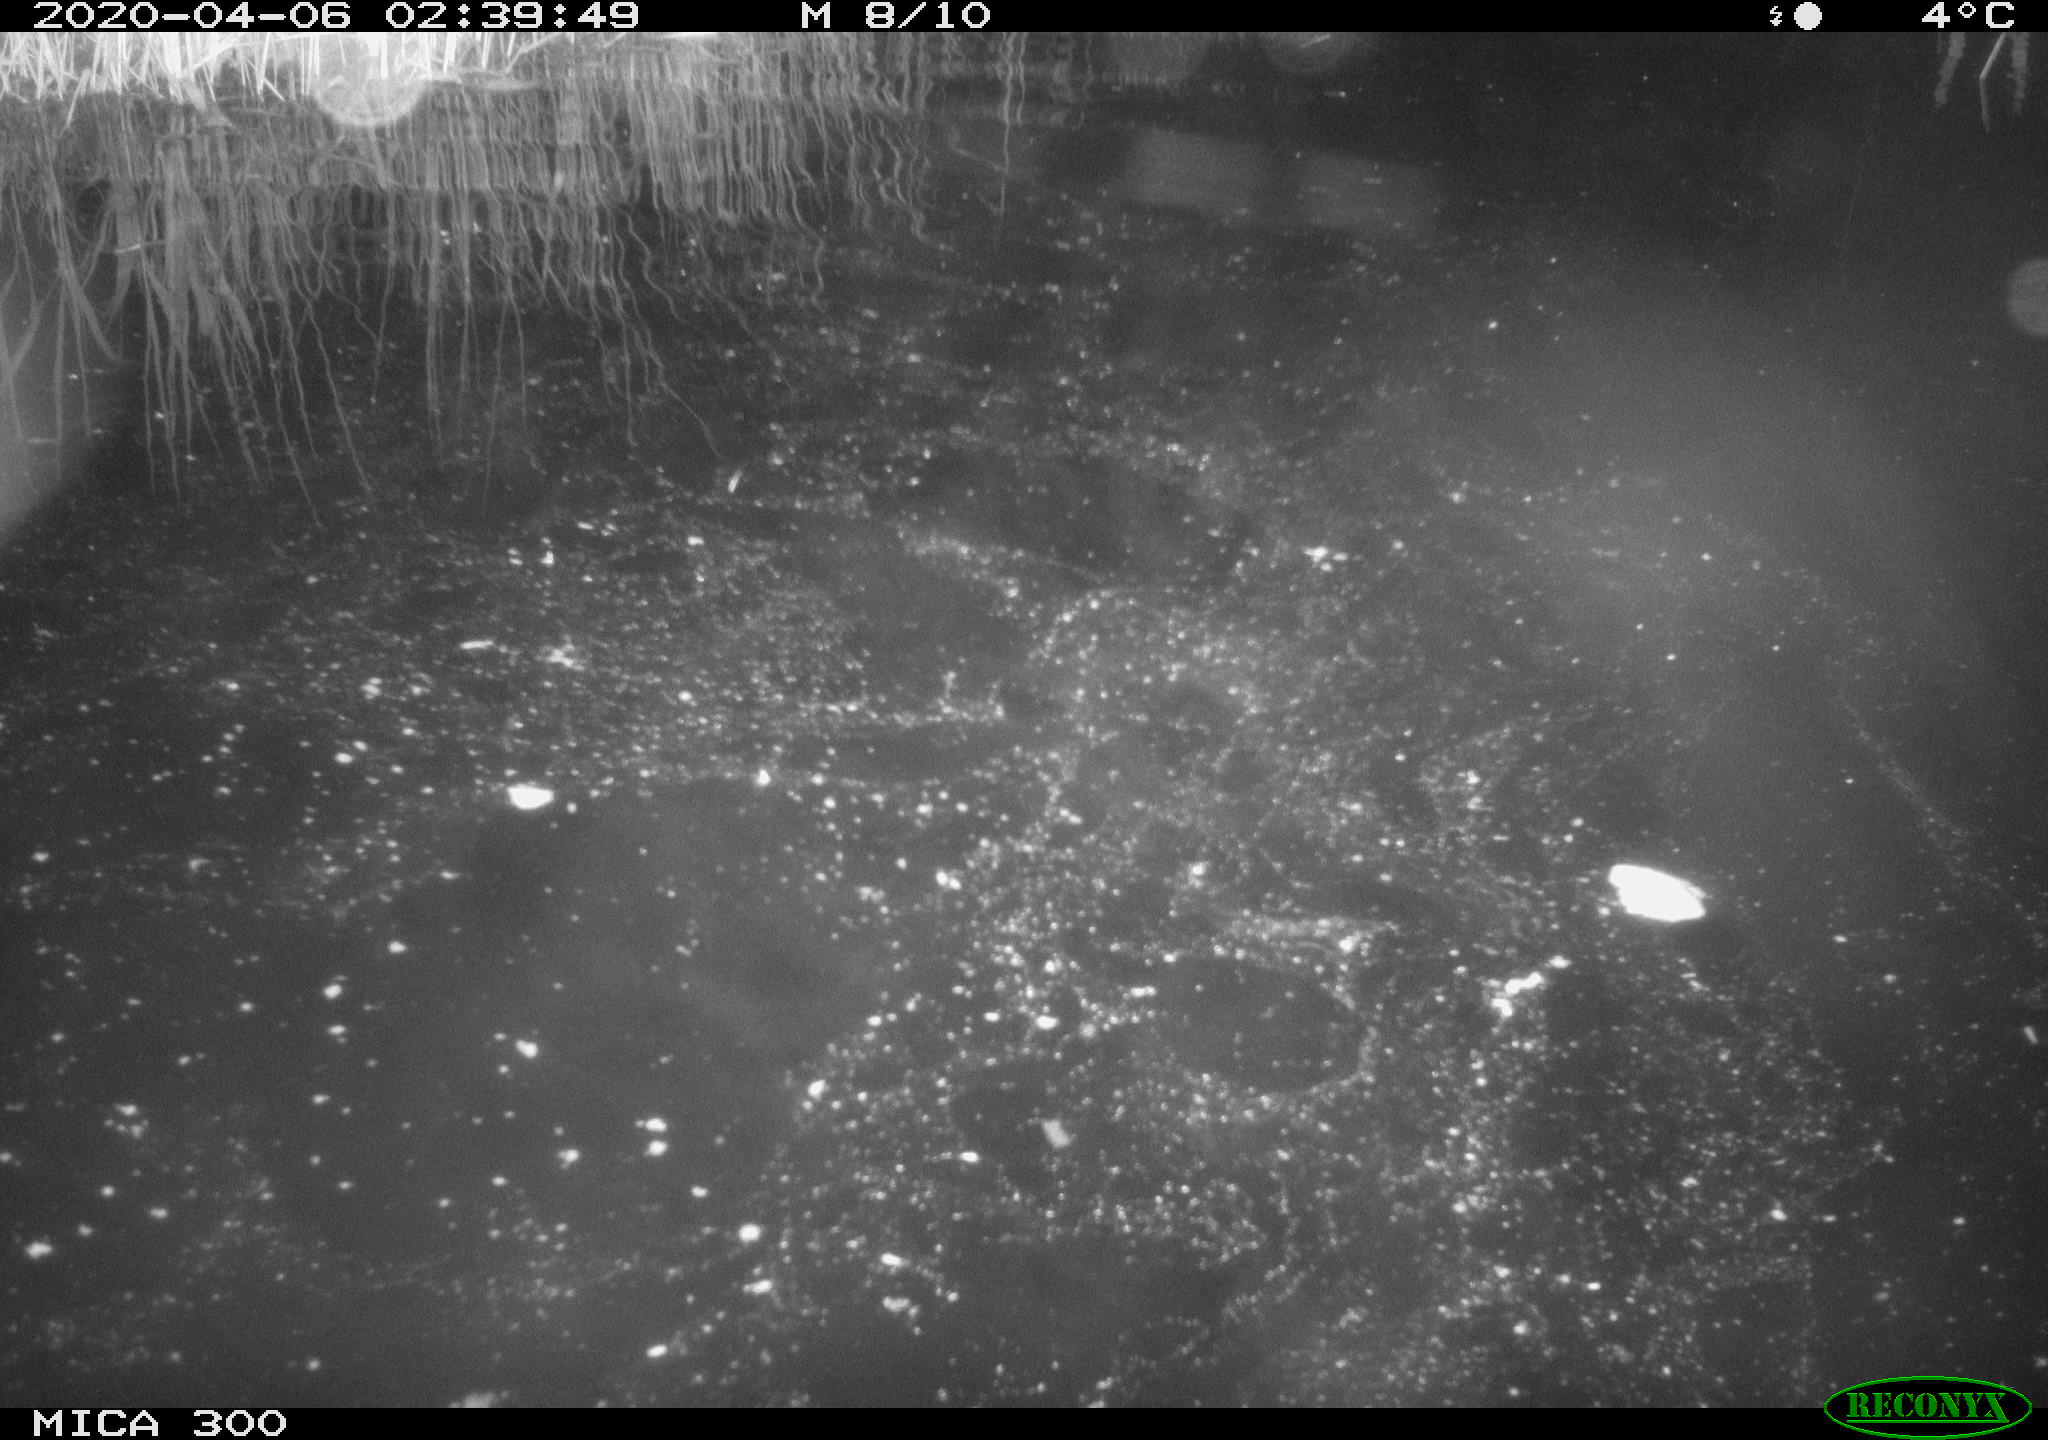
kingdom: Animalia
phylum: Chordata
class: Mammalia
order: Rodentia
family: Castoridae
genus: Castor
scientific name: Castor fiber
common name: Eurasian beaver
